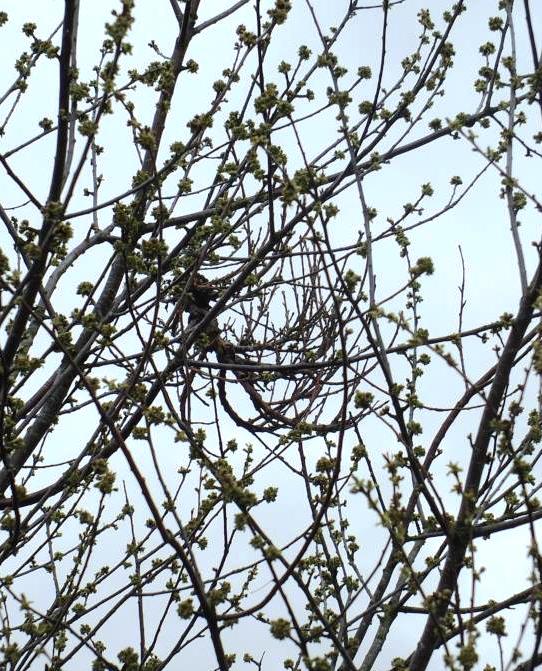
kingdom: Fungi
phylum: Ascomycota
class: Taphrinomycetes
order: Taphrinales
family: Taphrinaceae
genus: Taphrina
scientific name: Taphrina wiesneri
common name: Cherry leaf curl
